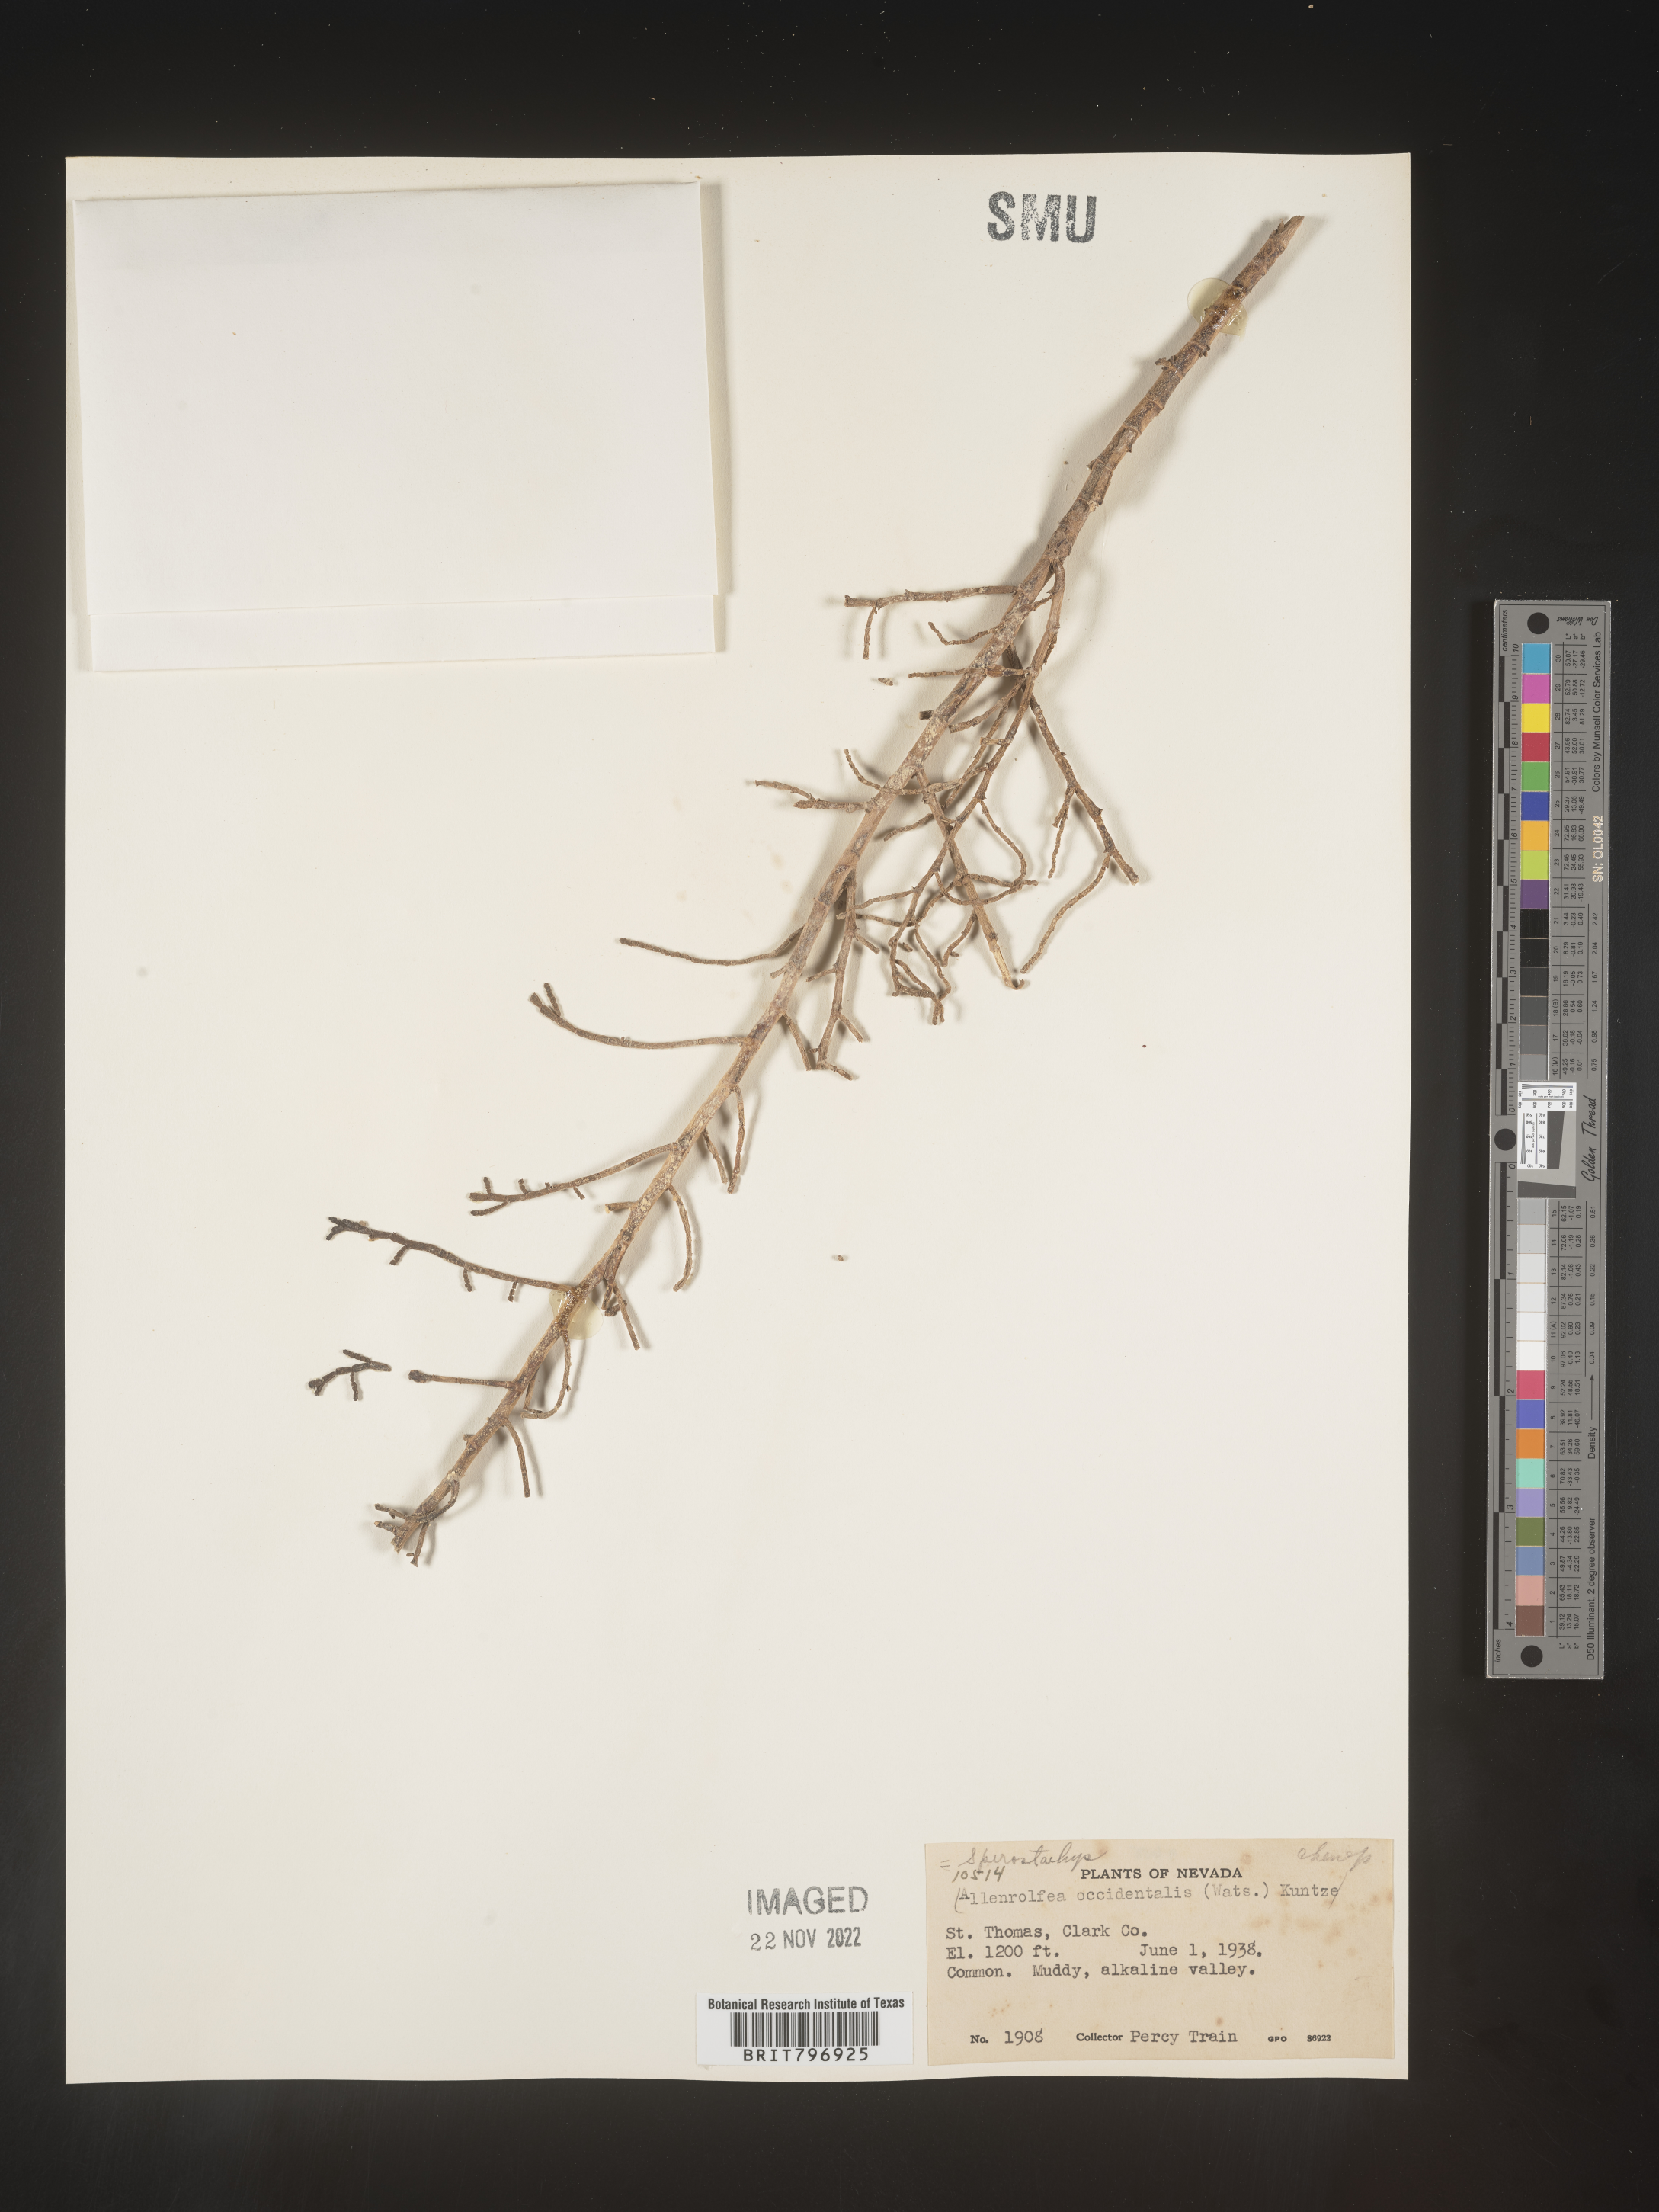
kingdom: Plantae
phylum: Tracheophyta
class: Magnoliopsida
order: Caryophyllales
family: Amaranthaceae
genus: Allenrolfea
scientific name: Allenrolfea
